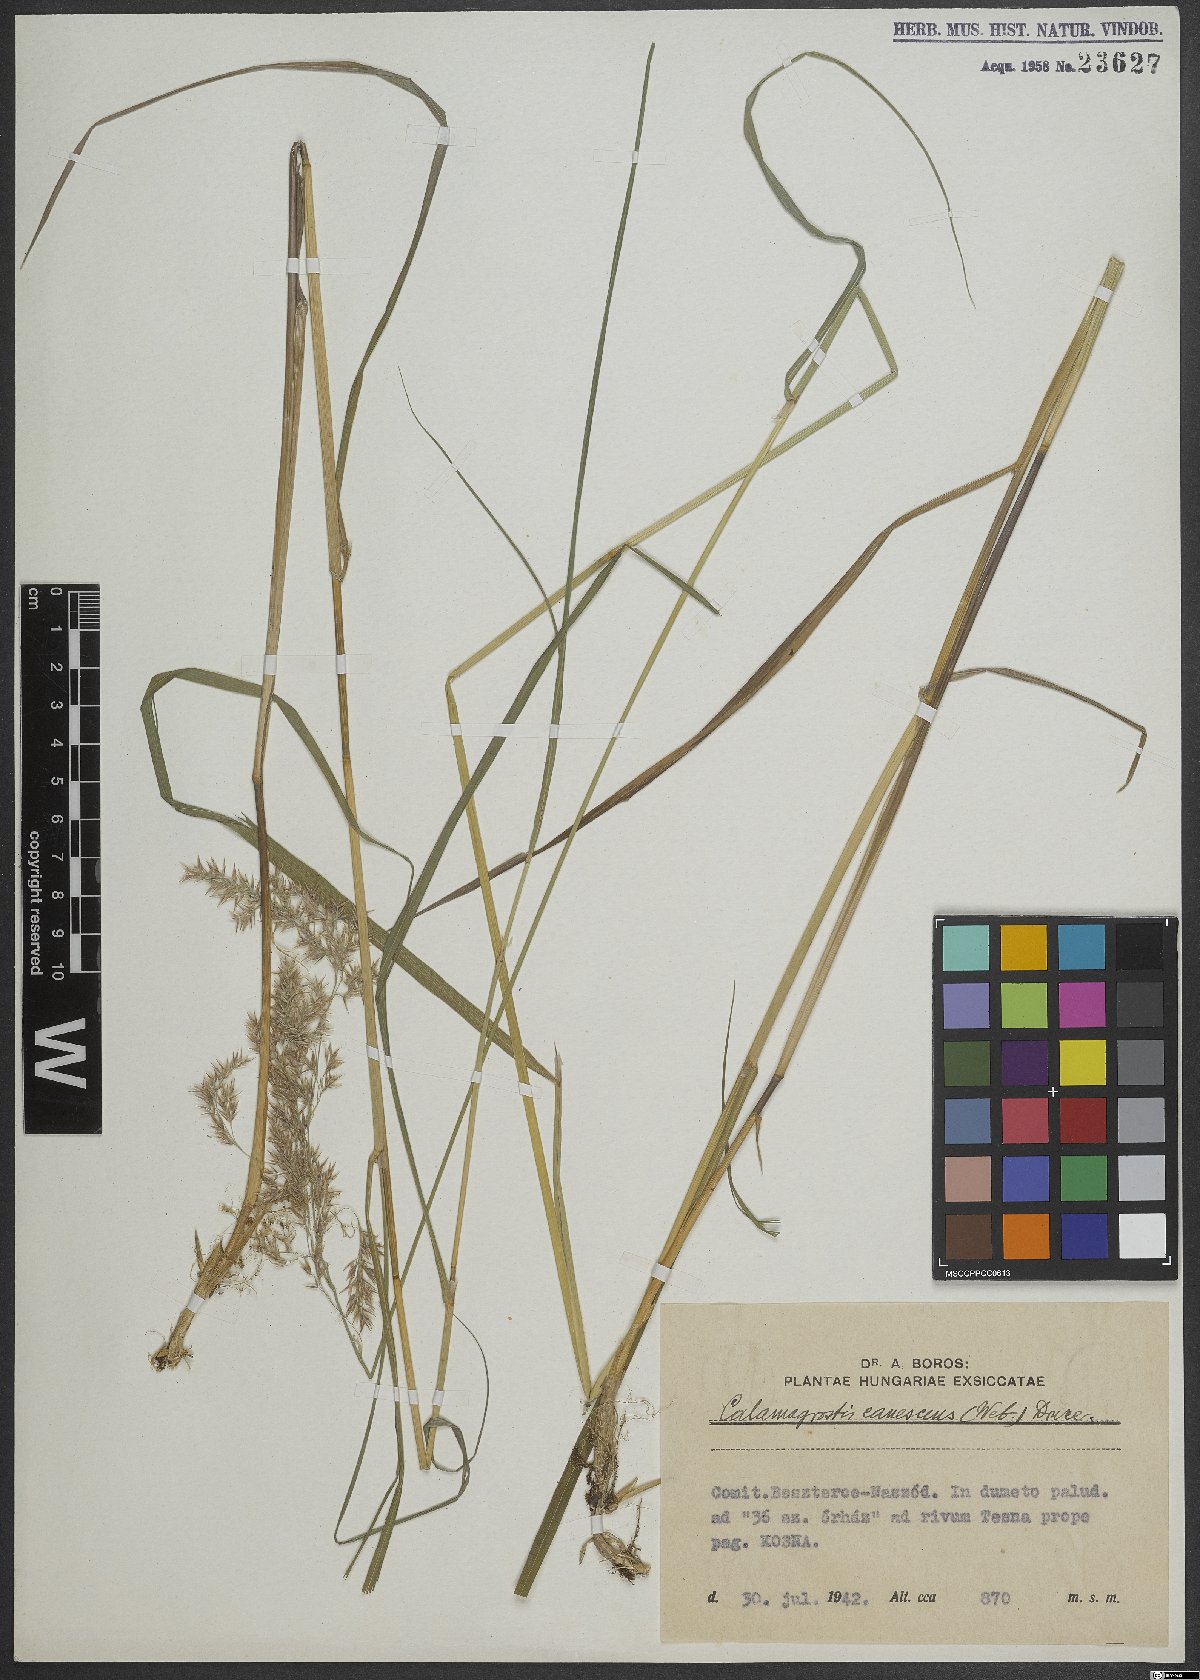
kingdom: Plantae
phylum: Tracheophyta
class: Liliopsida
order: Poales
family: Poaceae
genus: Calamagrostis
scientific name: Calamagrostis purpurea
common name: Scandinavian small-reed
